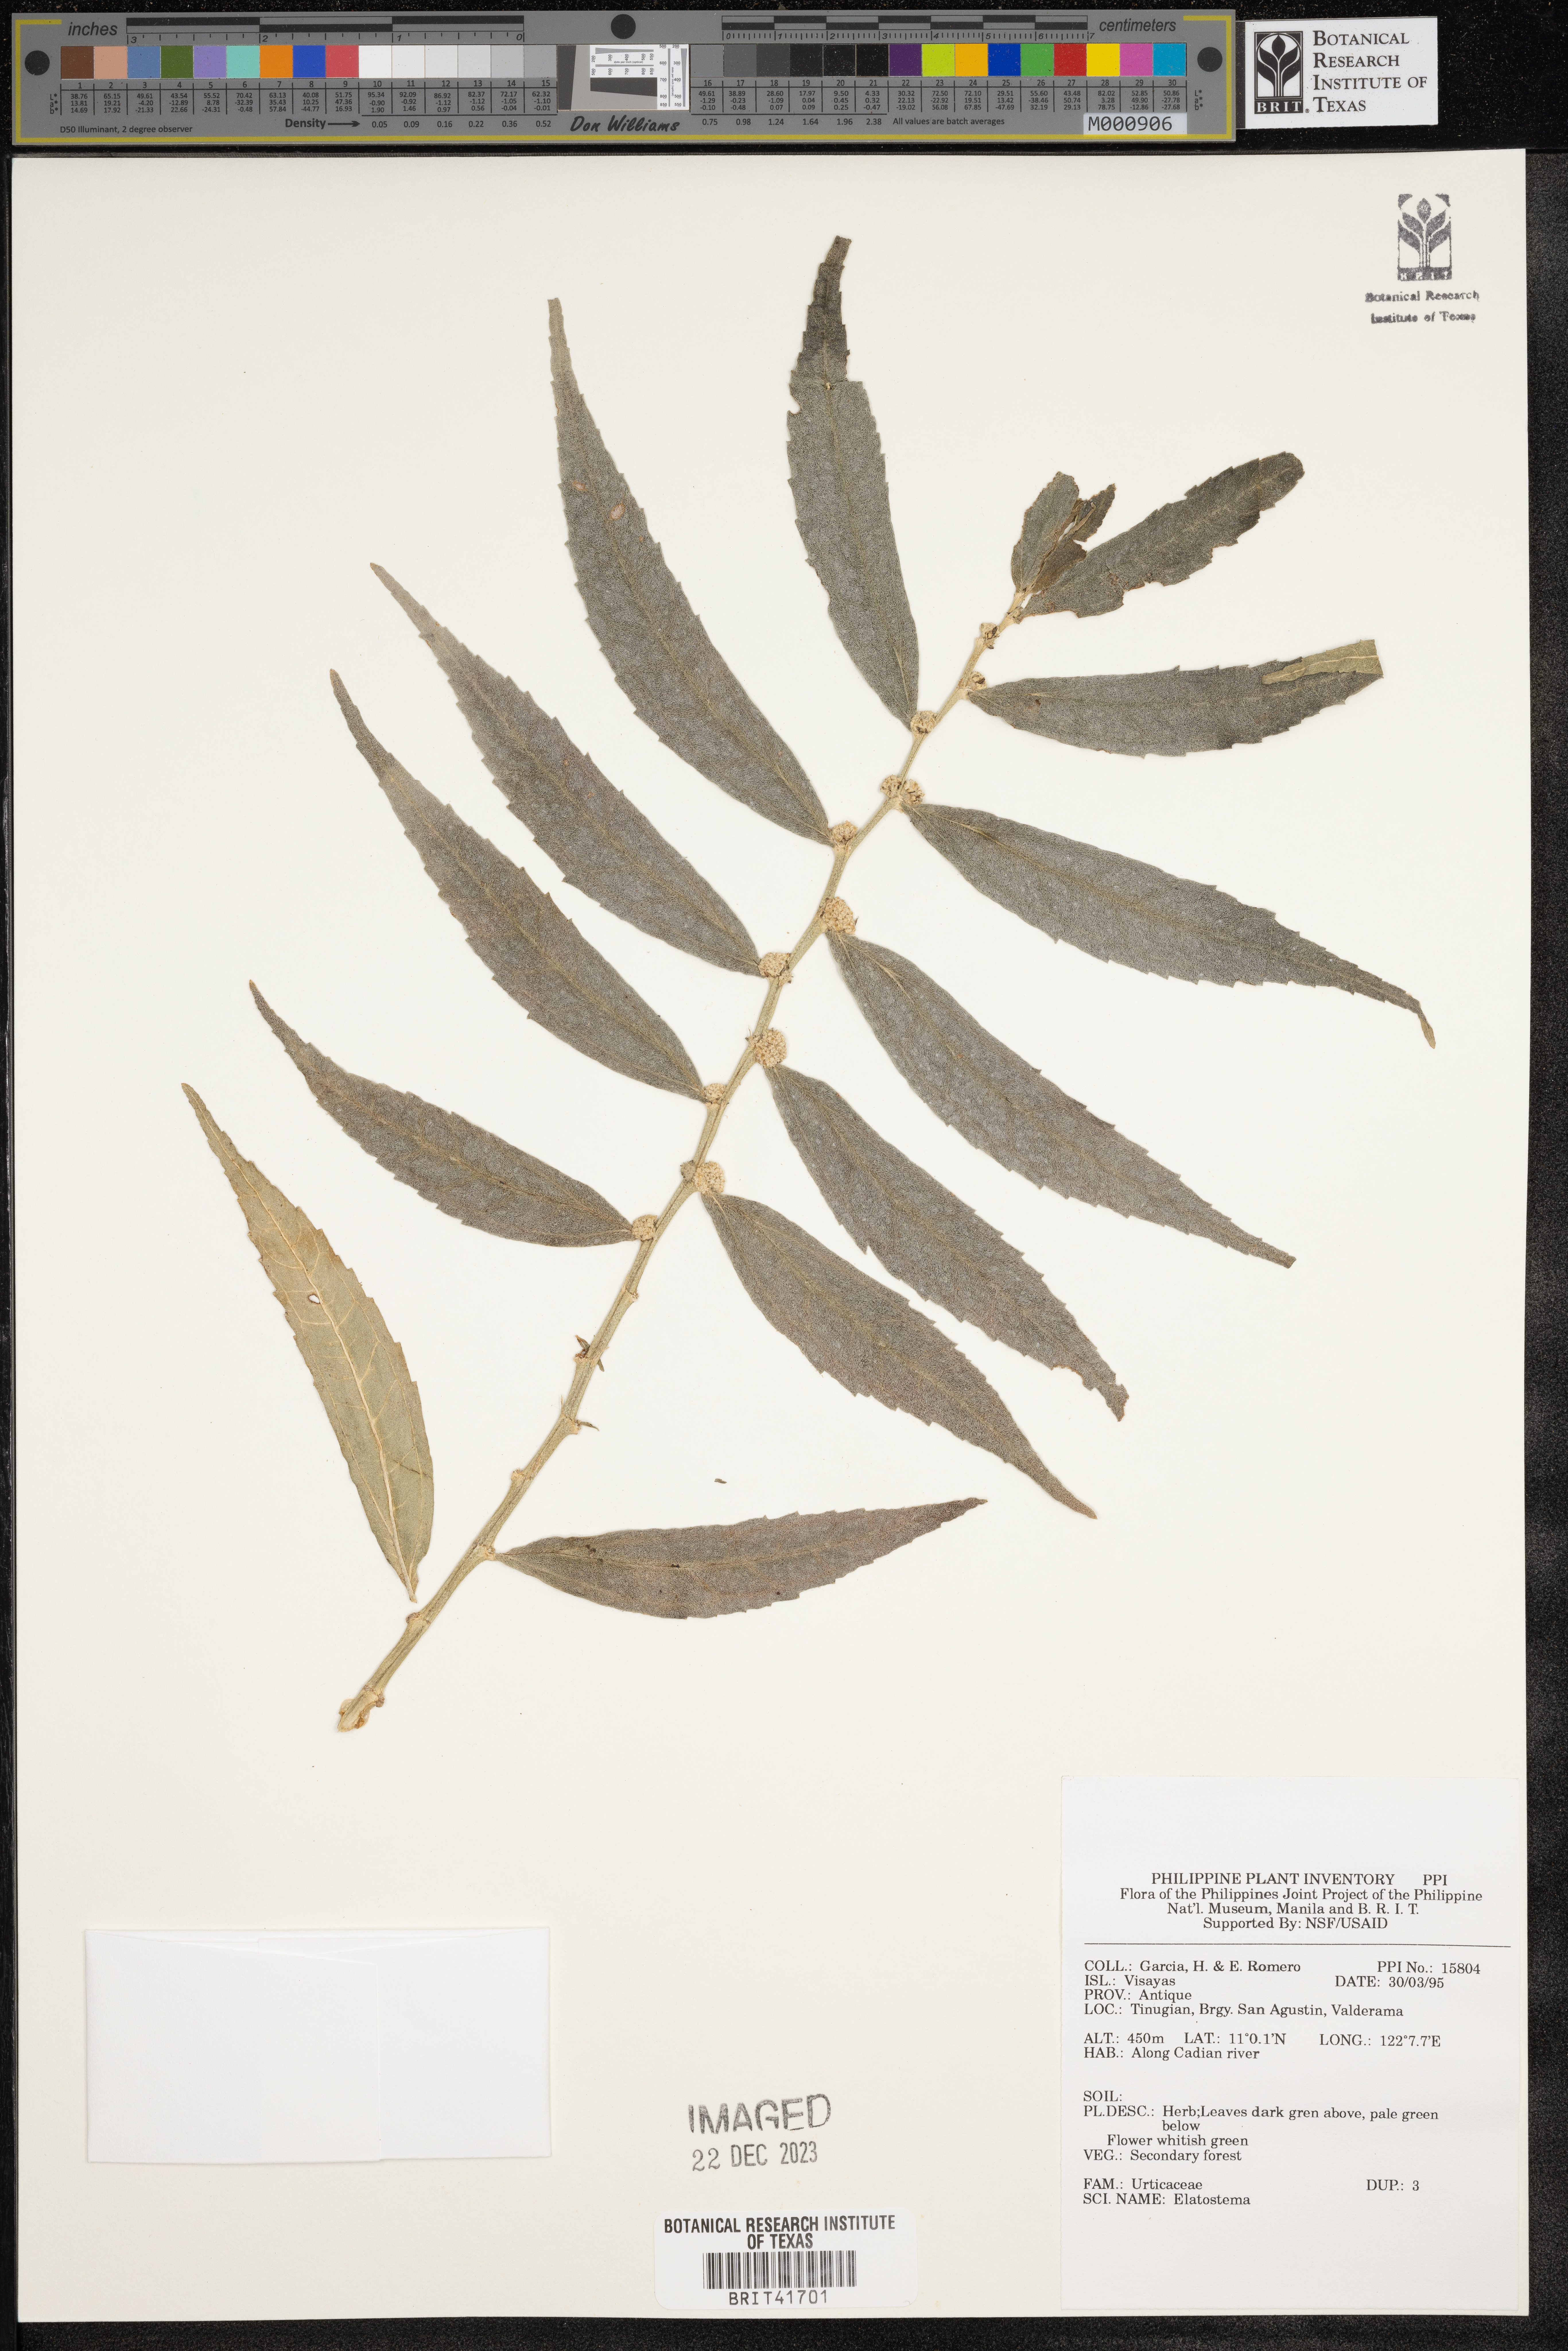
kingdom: Plantae
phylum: Tracheophyta
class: Magnoliopsida
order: Rosales
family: Urticaceae
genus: Elatostema
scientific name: Elatostema
